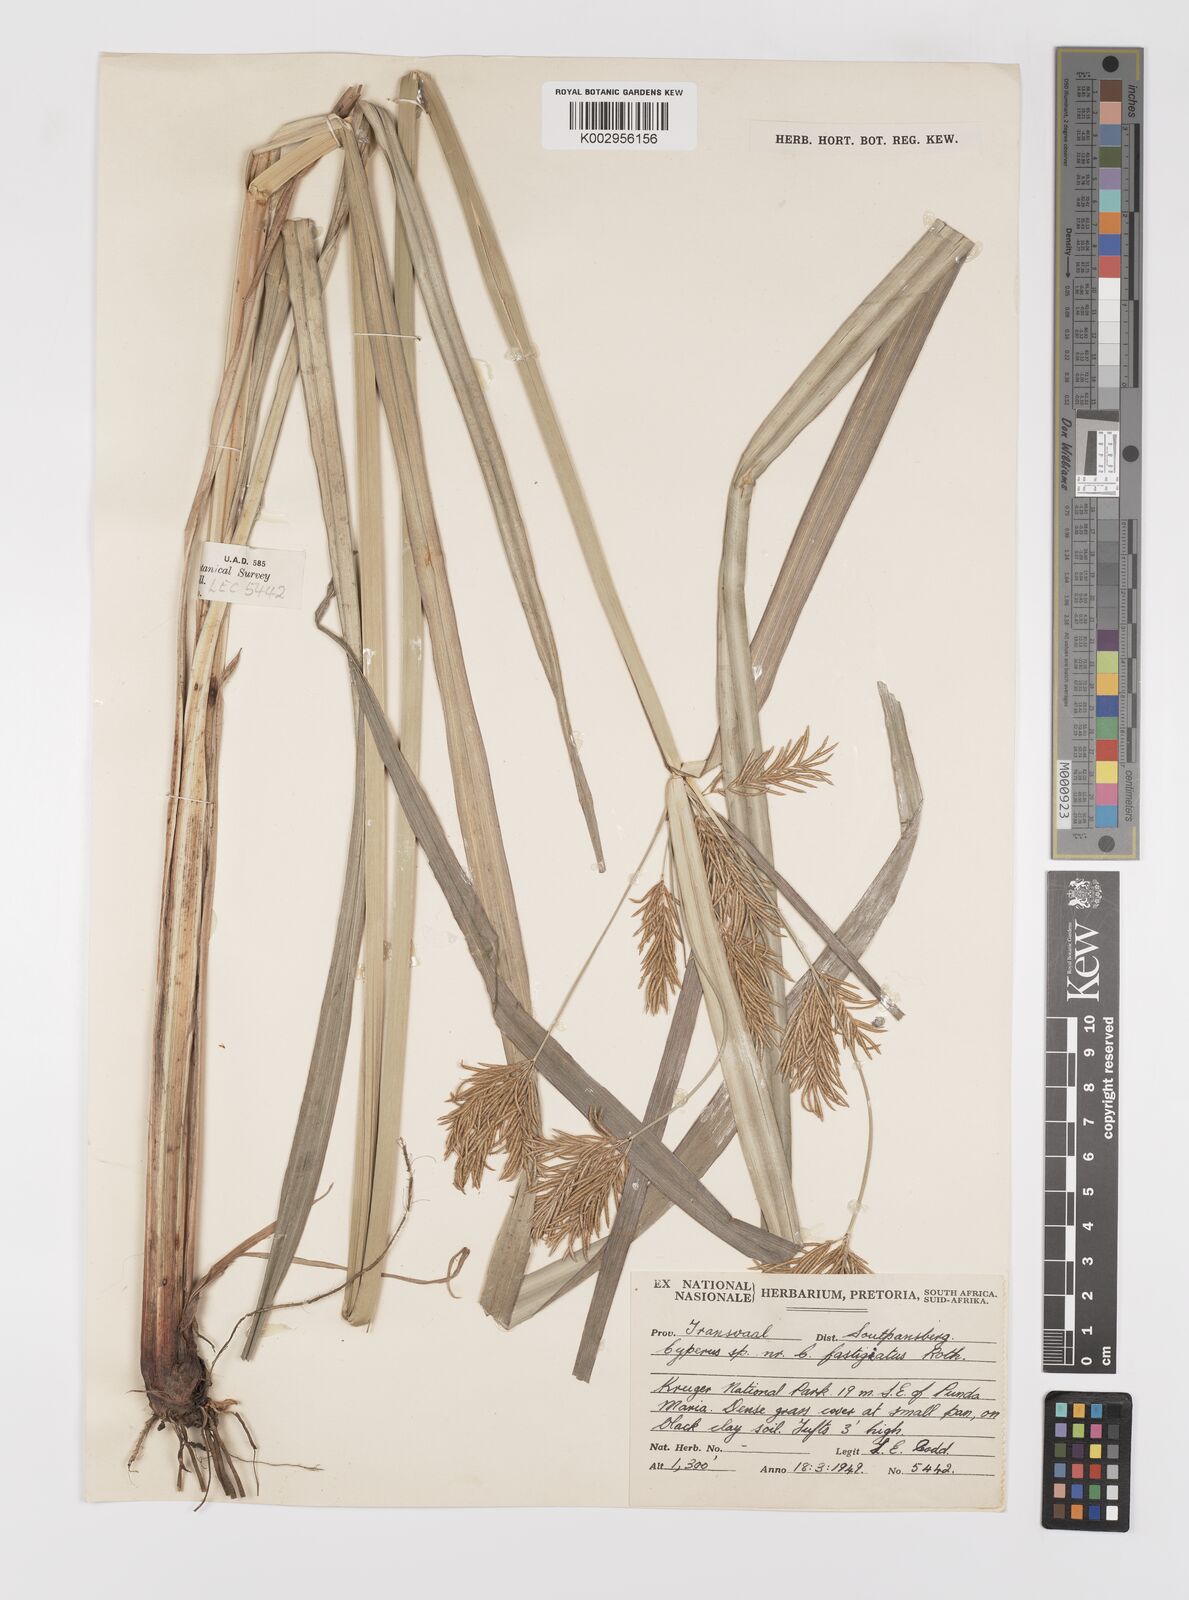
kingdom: Plantae
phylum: Tracheophyta
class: Liliopsida
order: Poales
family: Cyperaceae
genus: Cyperus
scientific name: Cyperus digitatus
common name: Finger flatsedge
